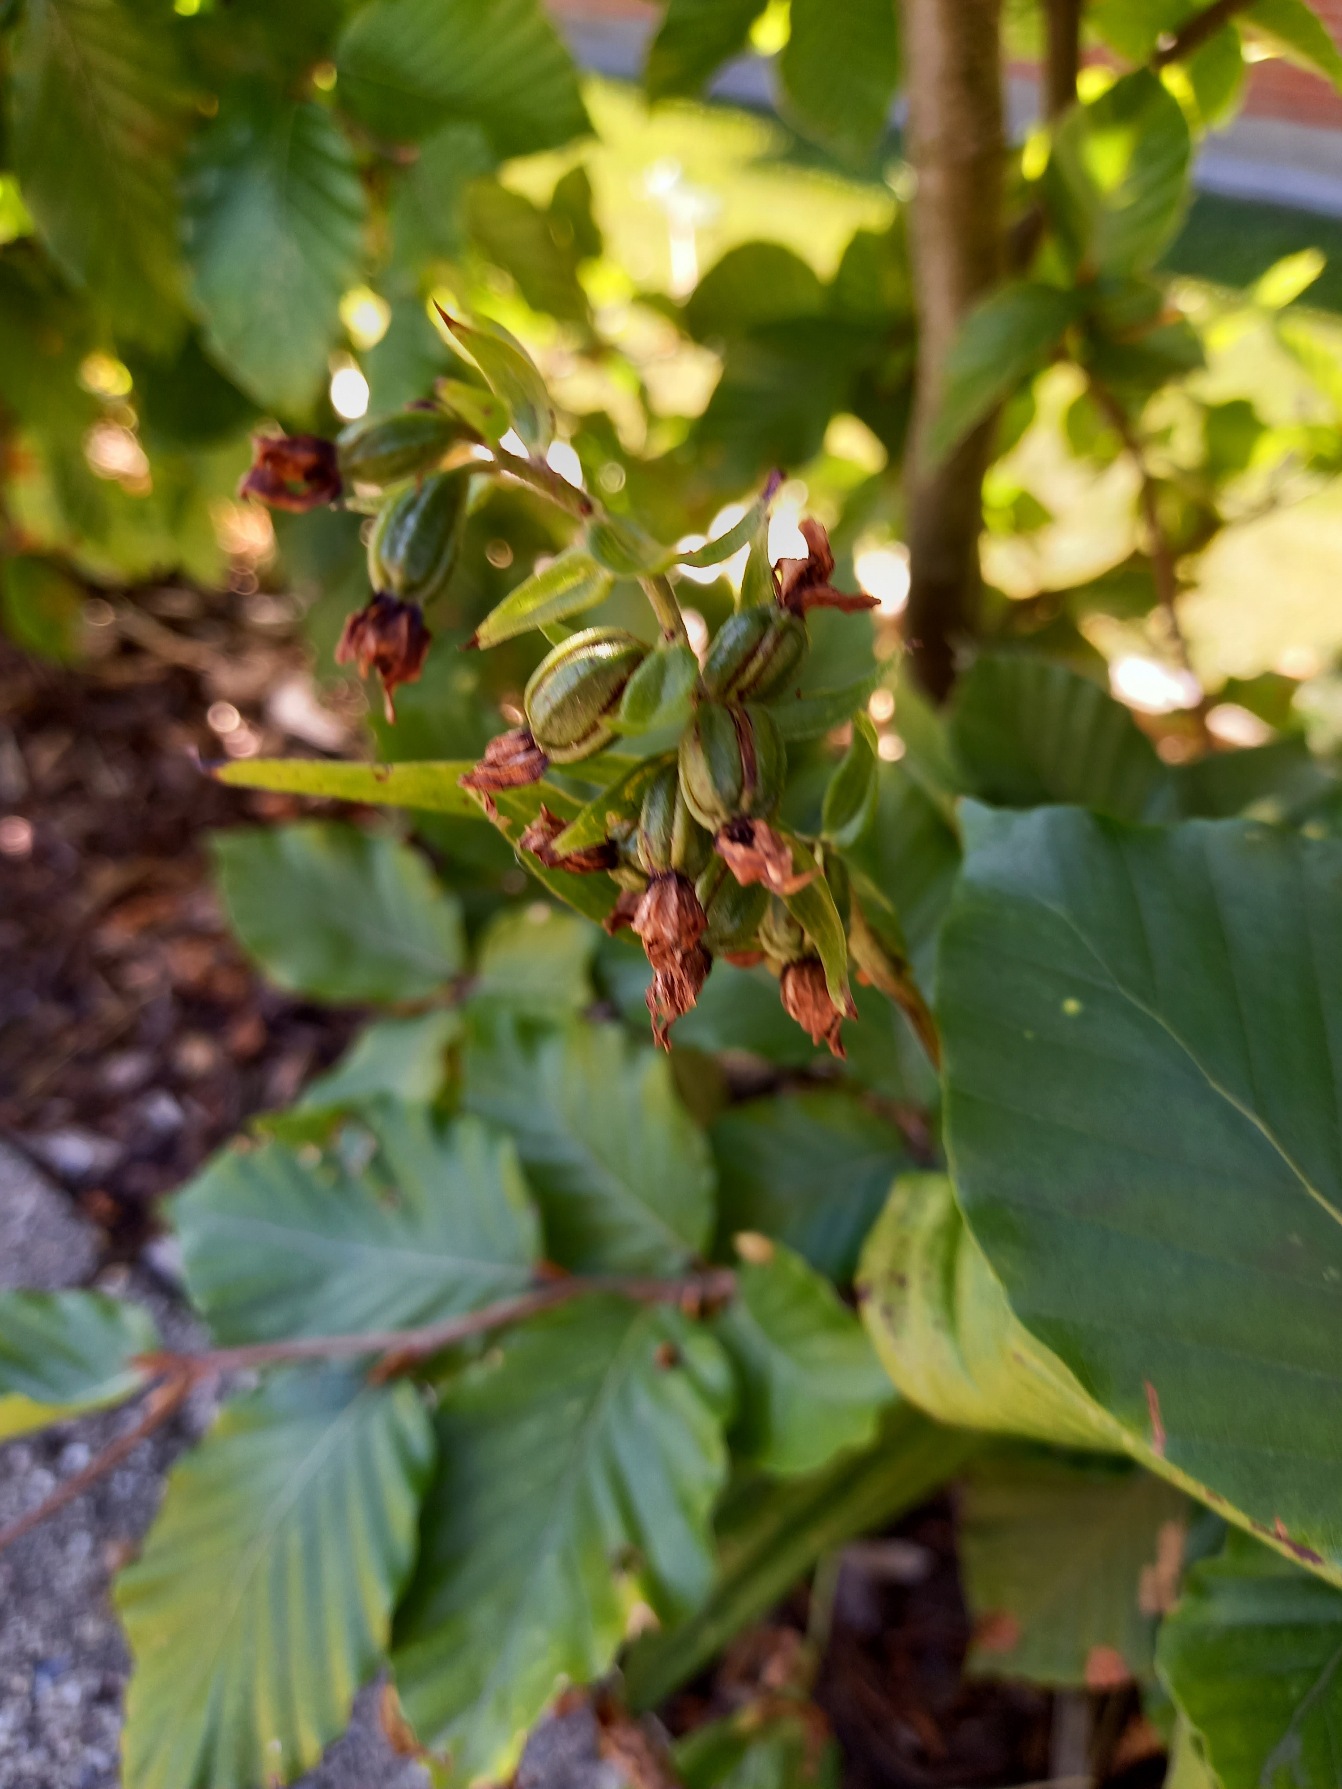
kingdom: Plantae
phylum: Tracheophyta
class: Liliopsida
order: Asparagales
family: Orchidaceae
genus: Epipactis
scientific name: Epipactis helleborine
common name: Skov-hullæbe
